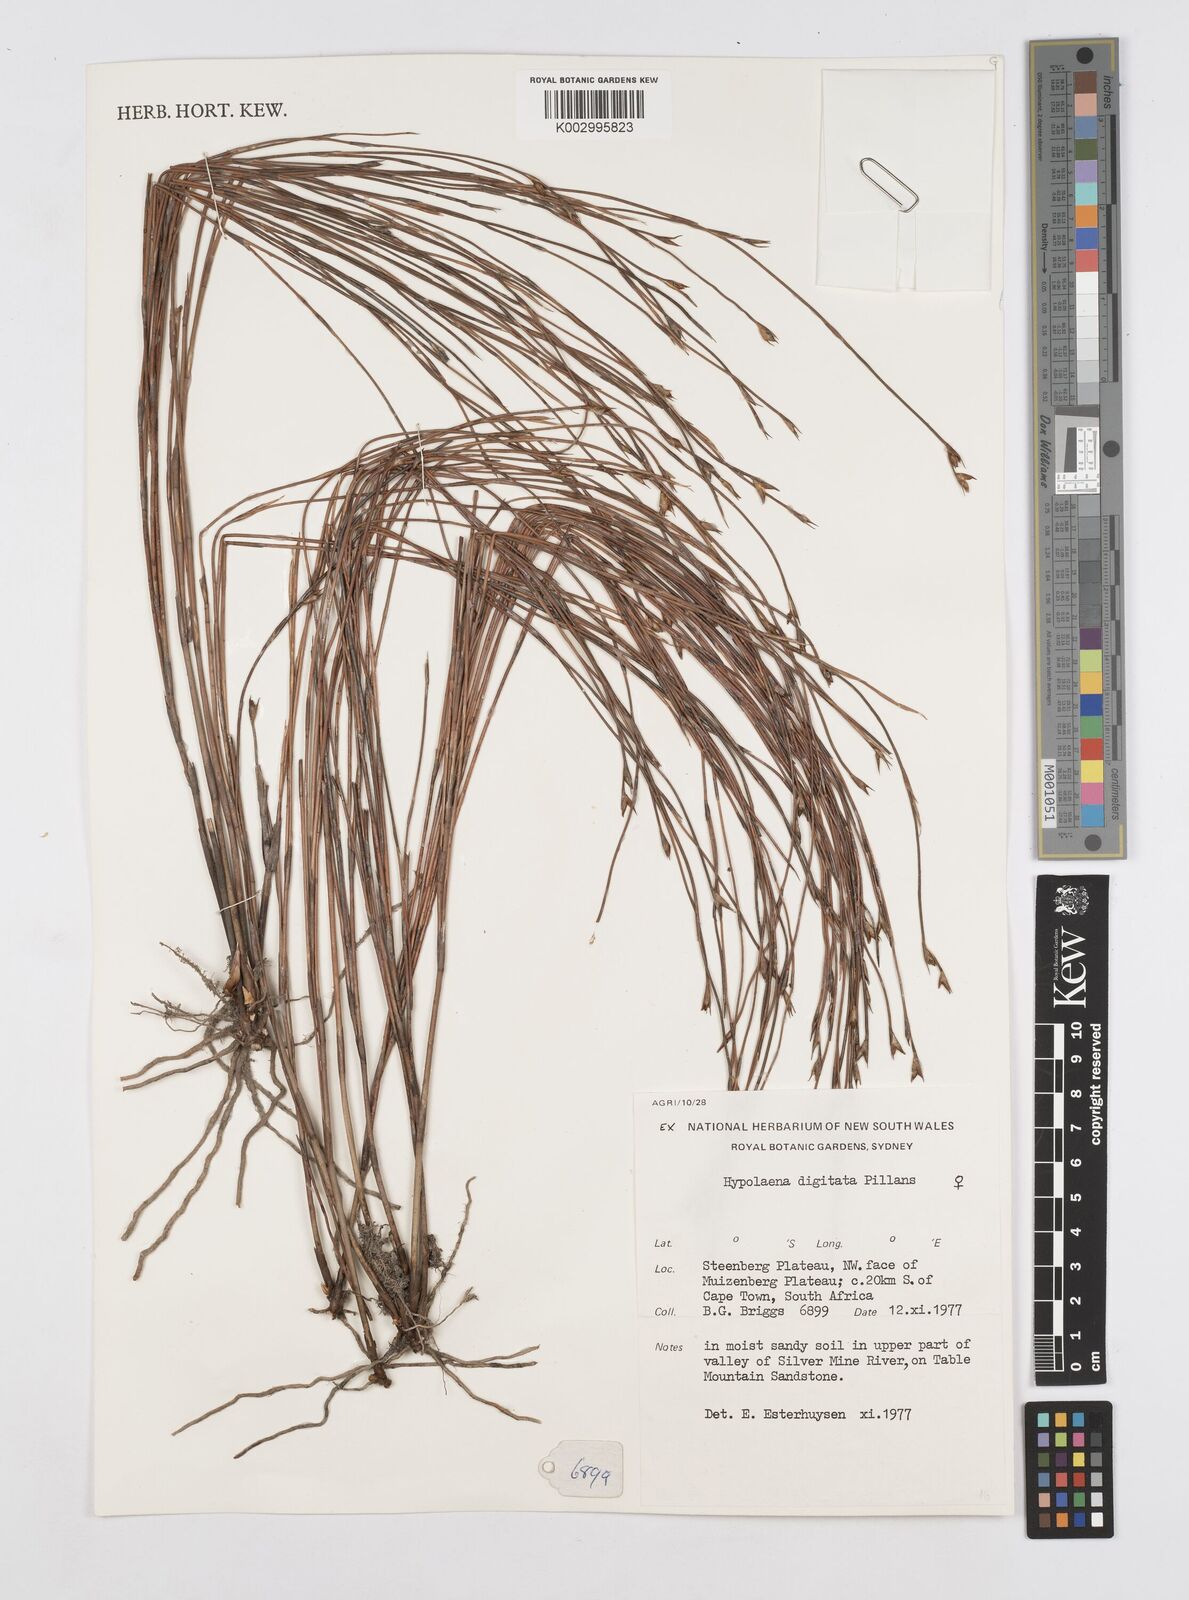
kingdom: Plantae
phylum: Tracheophyta
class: Liliopsida
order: Poales
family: Restionaceae
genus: Mastersiella
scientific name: Mastersiella digitata
